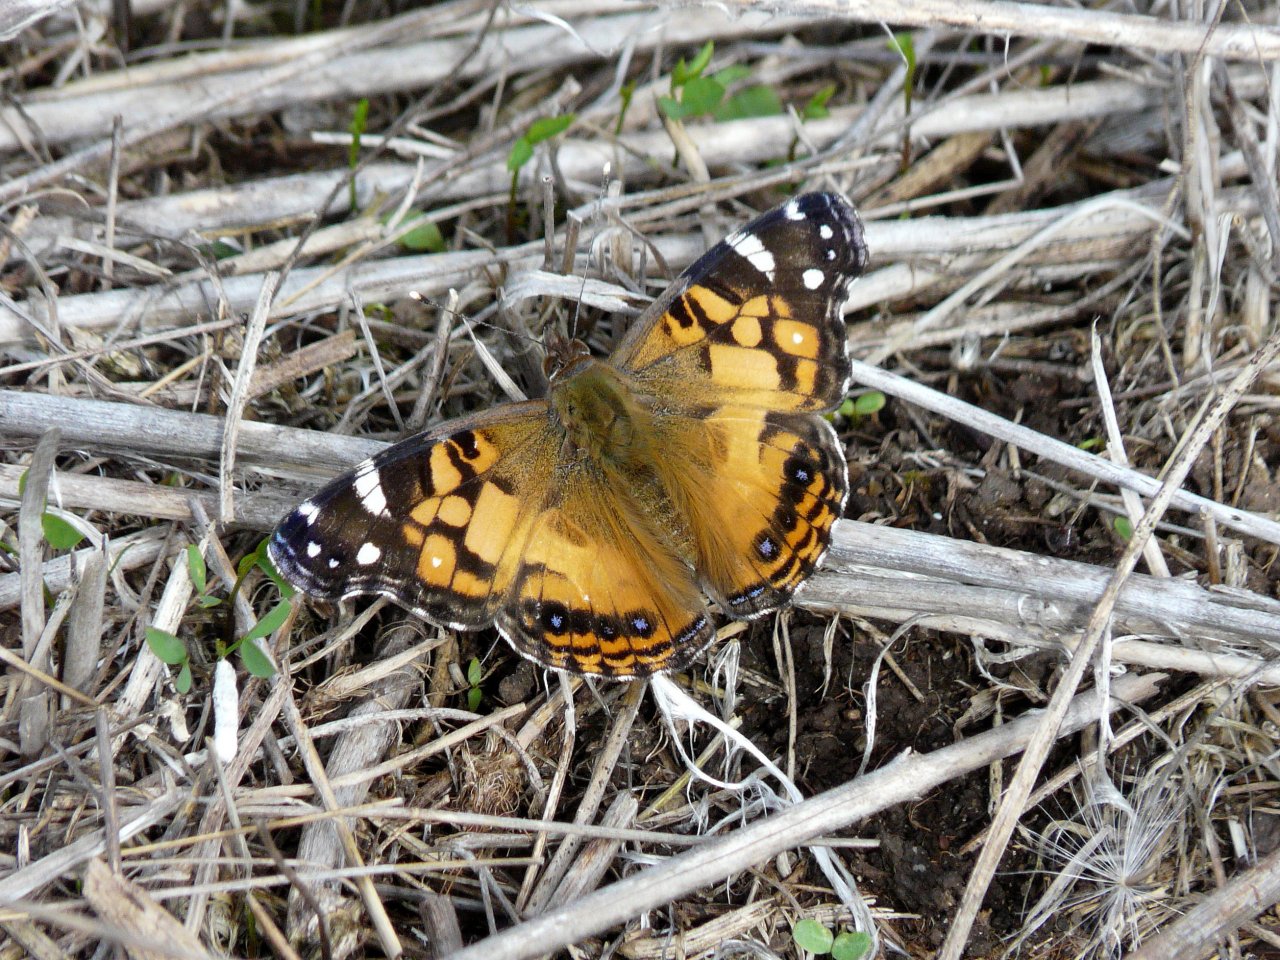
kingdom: Animalia
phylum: Arthropoda
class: Insecta
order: Lepidoptera
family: Nymphalidae
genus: Vanessa
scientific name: Vanessa virginiensis
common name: American Lady
